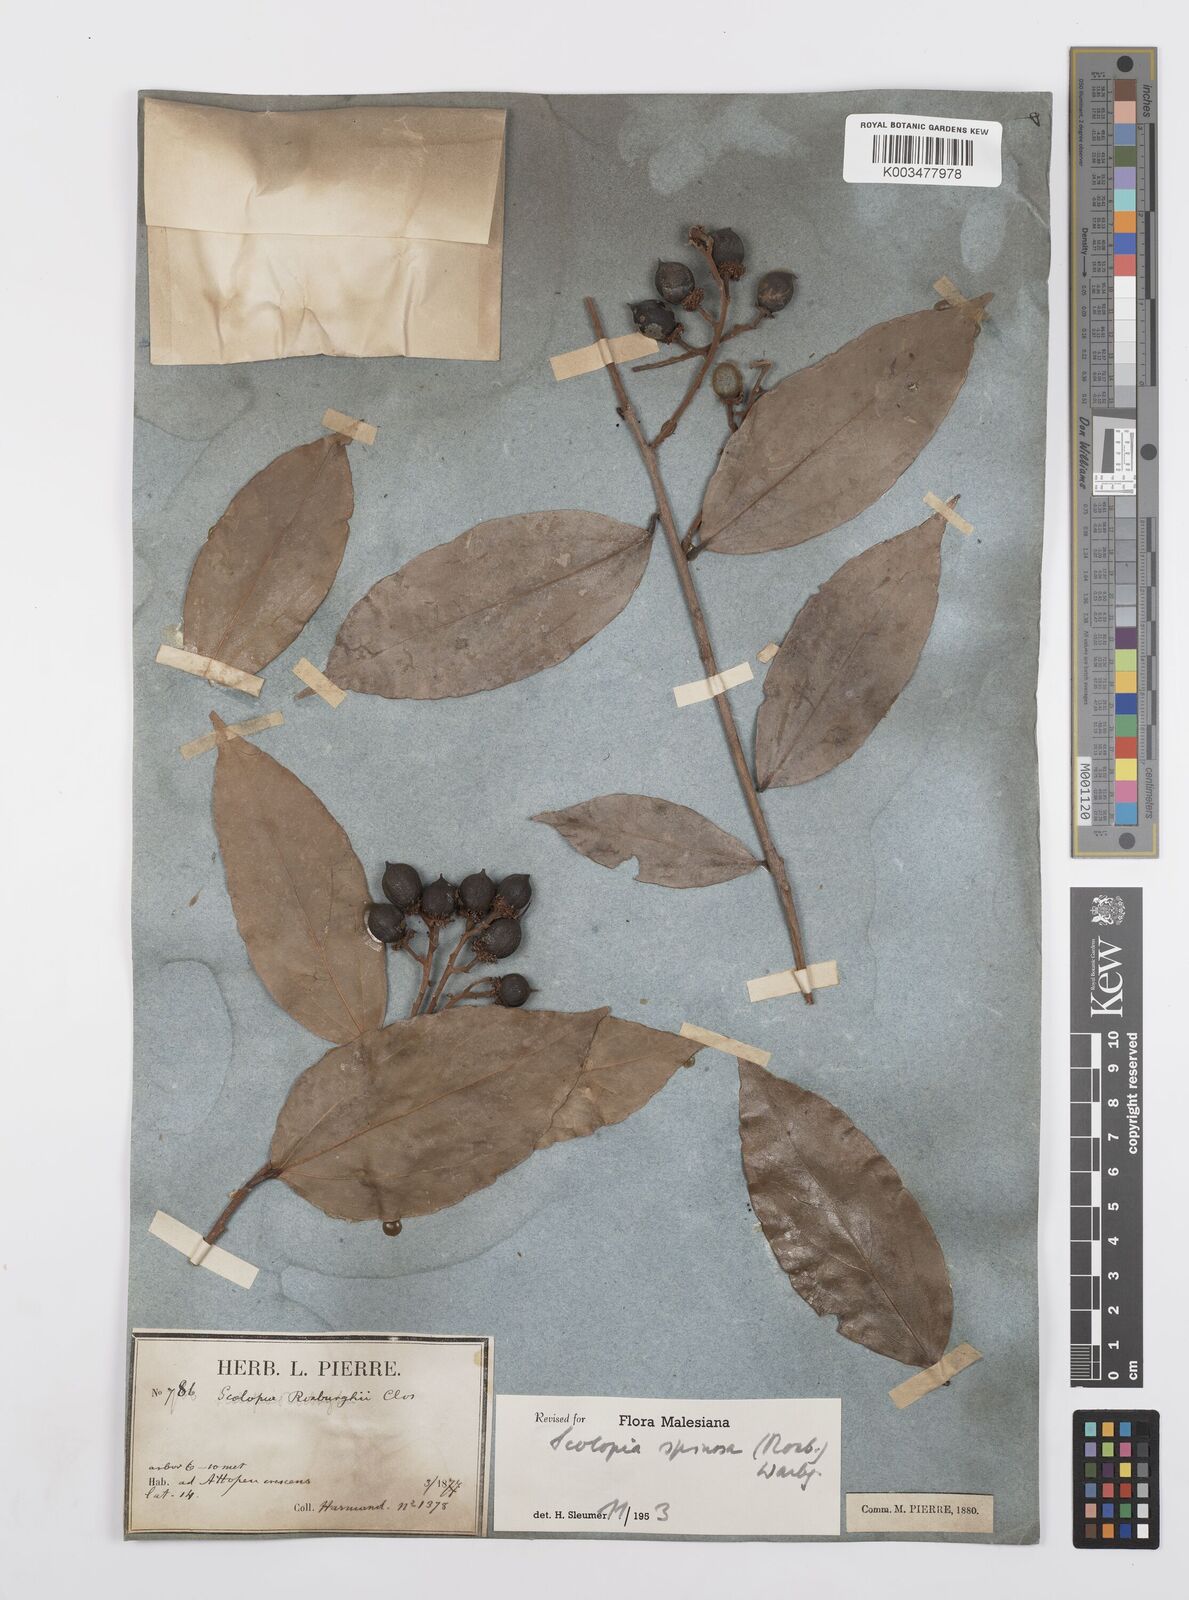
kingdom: Plantae
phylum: Tracheophyta
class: Magnoliopsida
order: Malpighiales
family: Salicaceae
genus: Scolopia
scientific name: Scolopia spinosa
